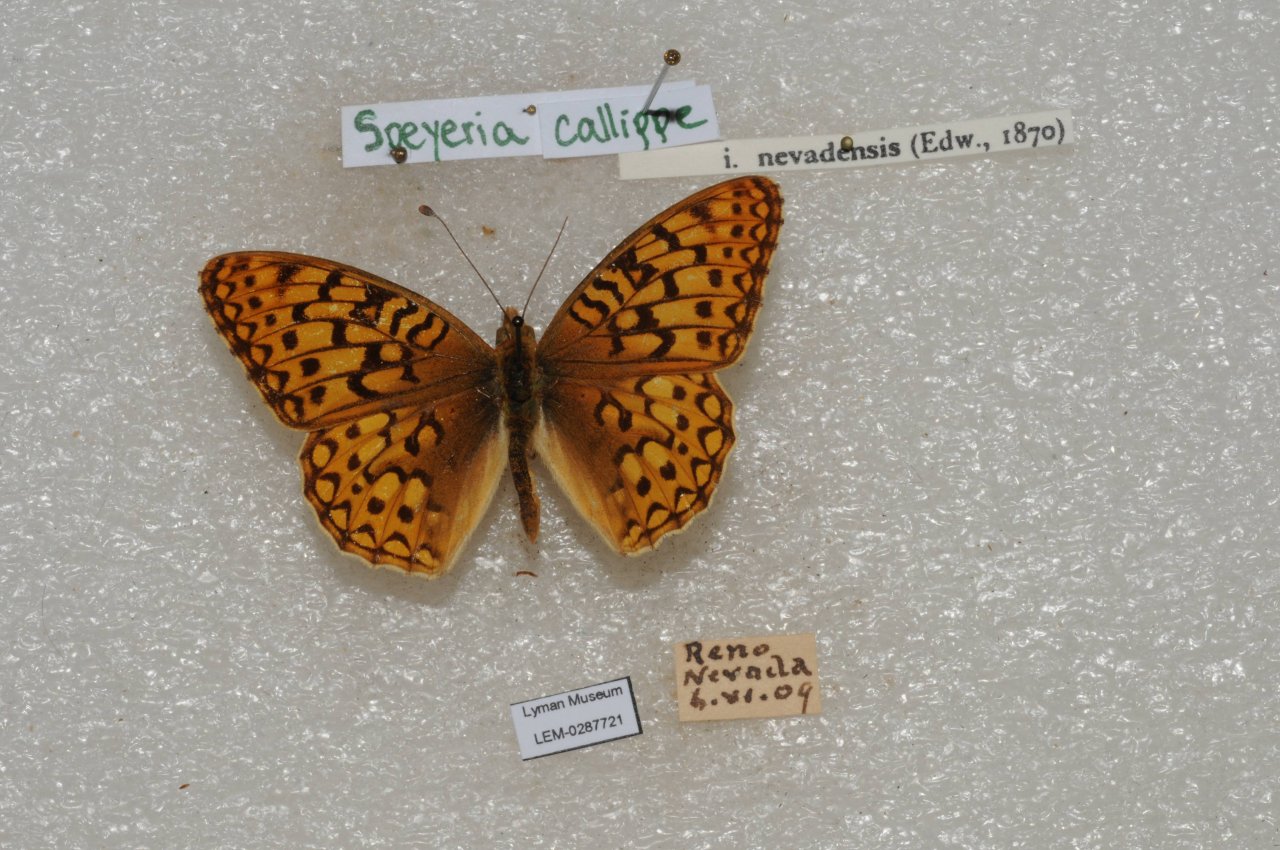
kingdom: Animalia
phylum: Arthropoda
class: Insecta
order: Lepidoptera
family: Nymphalidae
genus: Speyeria
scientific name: Speyeria callippe
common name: Callippe Fritillary
